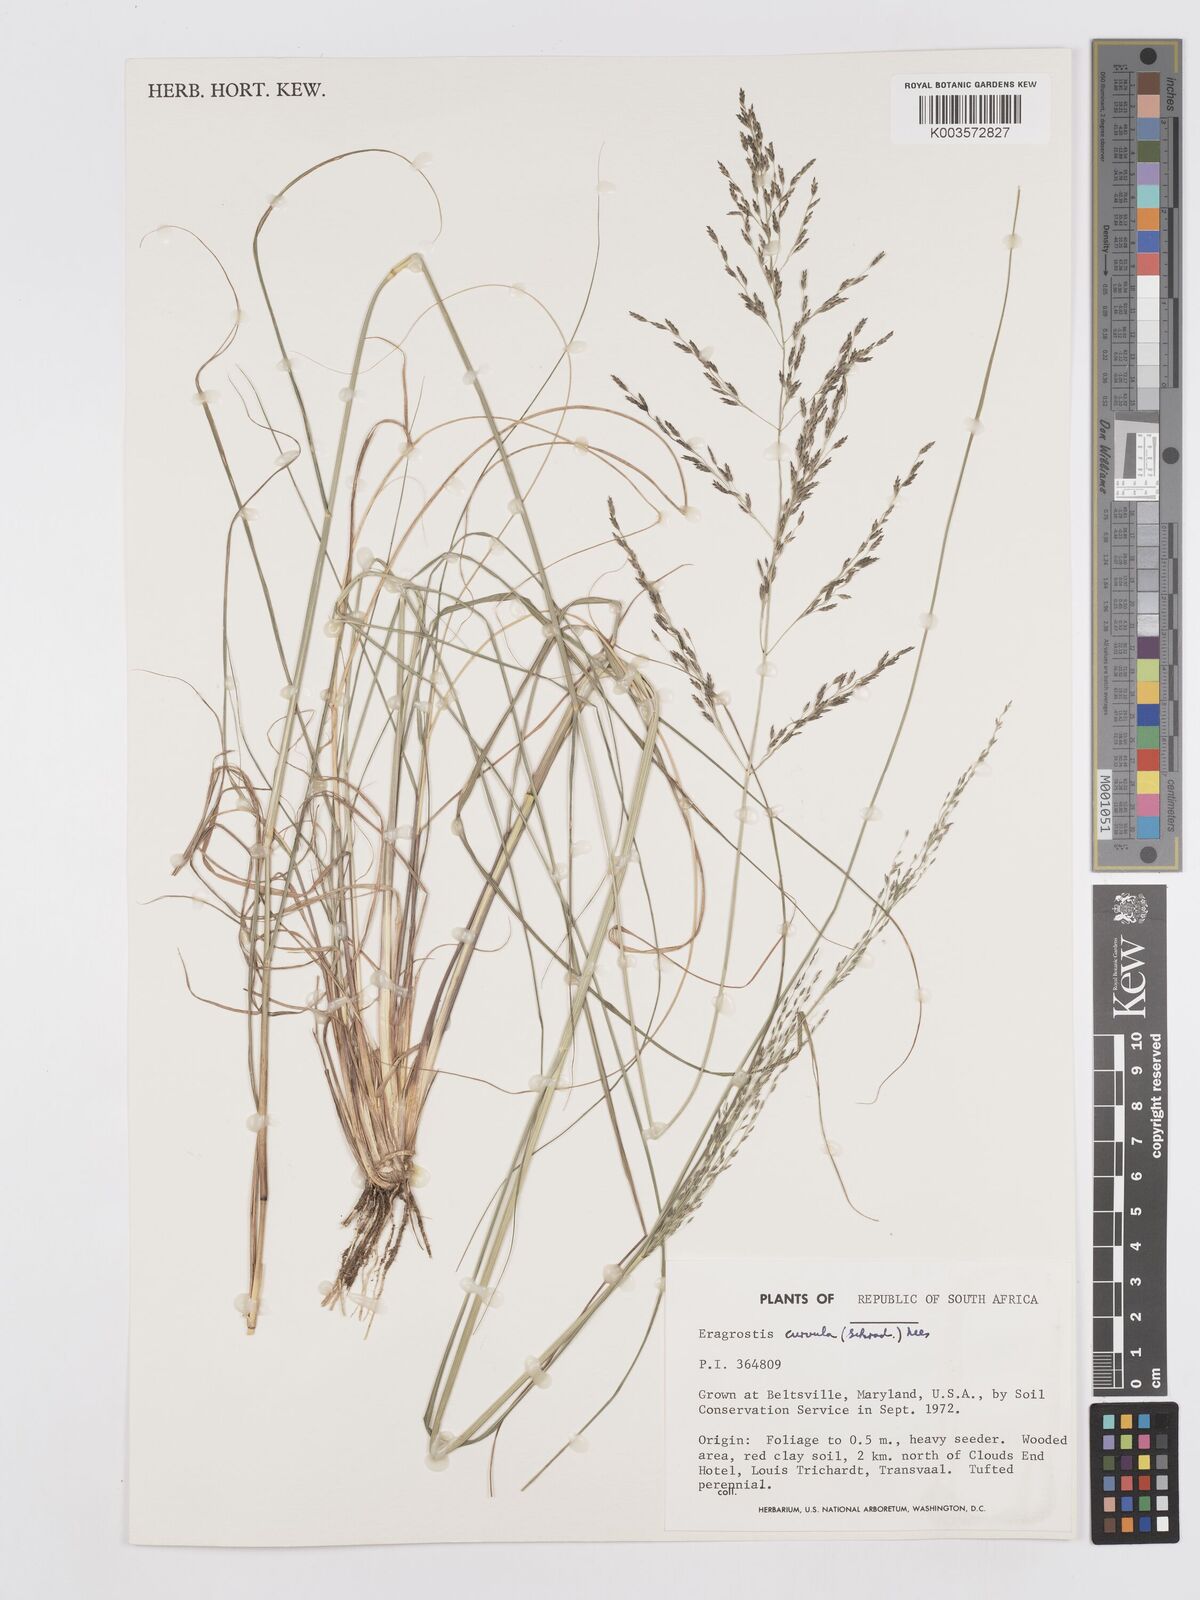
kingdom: Plantae
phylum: Tracheophyta
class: Liliopsida
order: Poales
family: Poaceae
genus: Eragrostis
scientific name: Eragrostis curvula
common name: African love-grass
